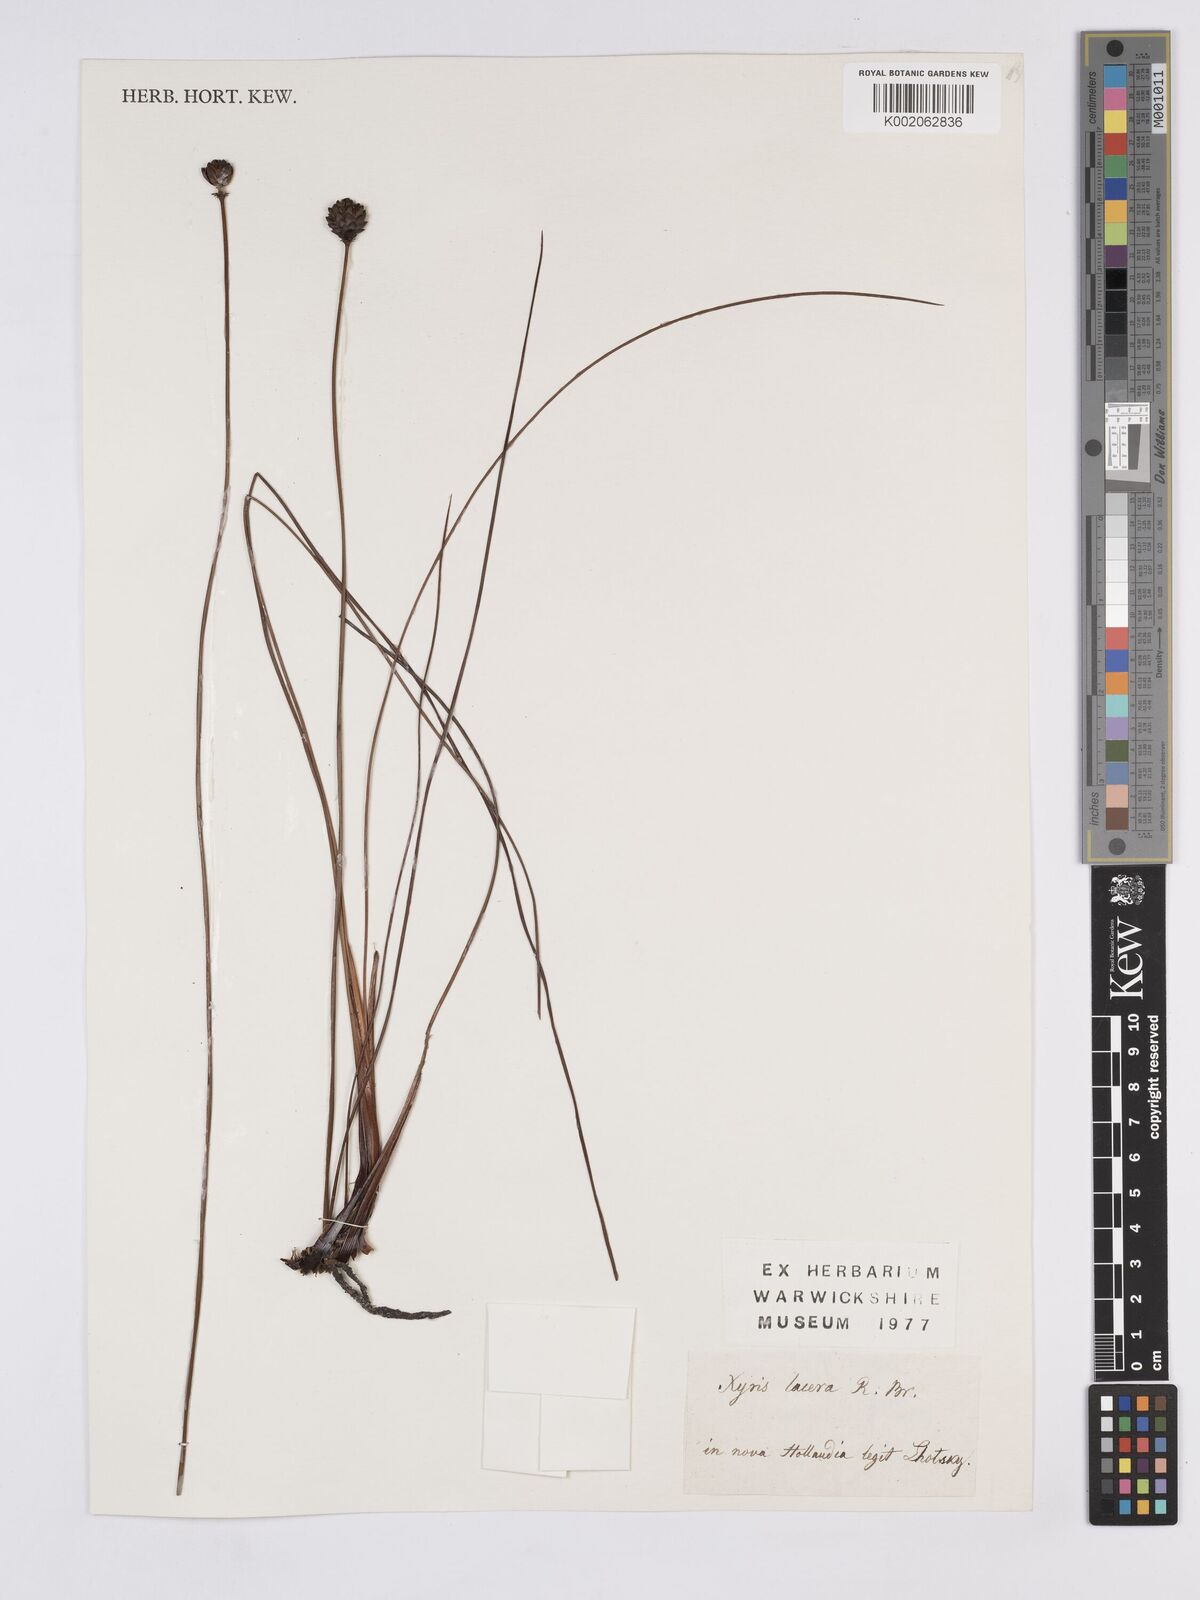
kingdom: Plantae
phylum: Tracheophyta
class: Liliopsida
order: Poales
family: Xyridaceae
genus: Xyris
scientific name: Xyris lacera
